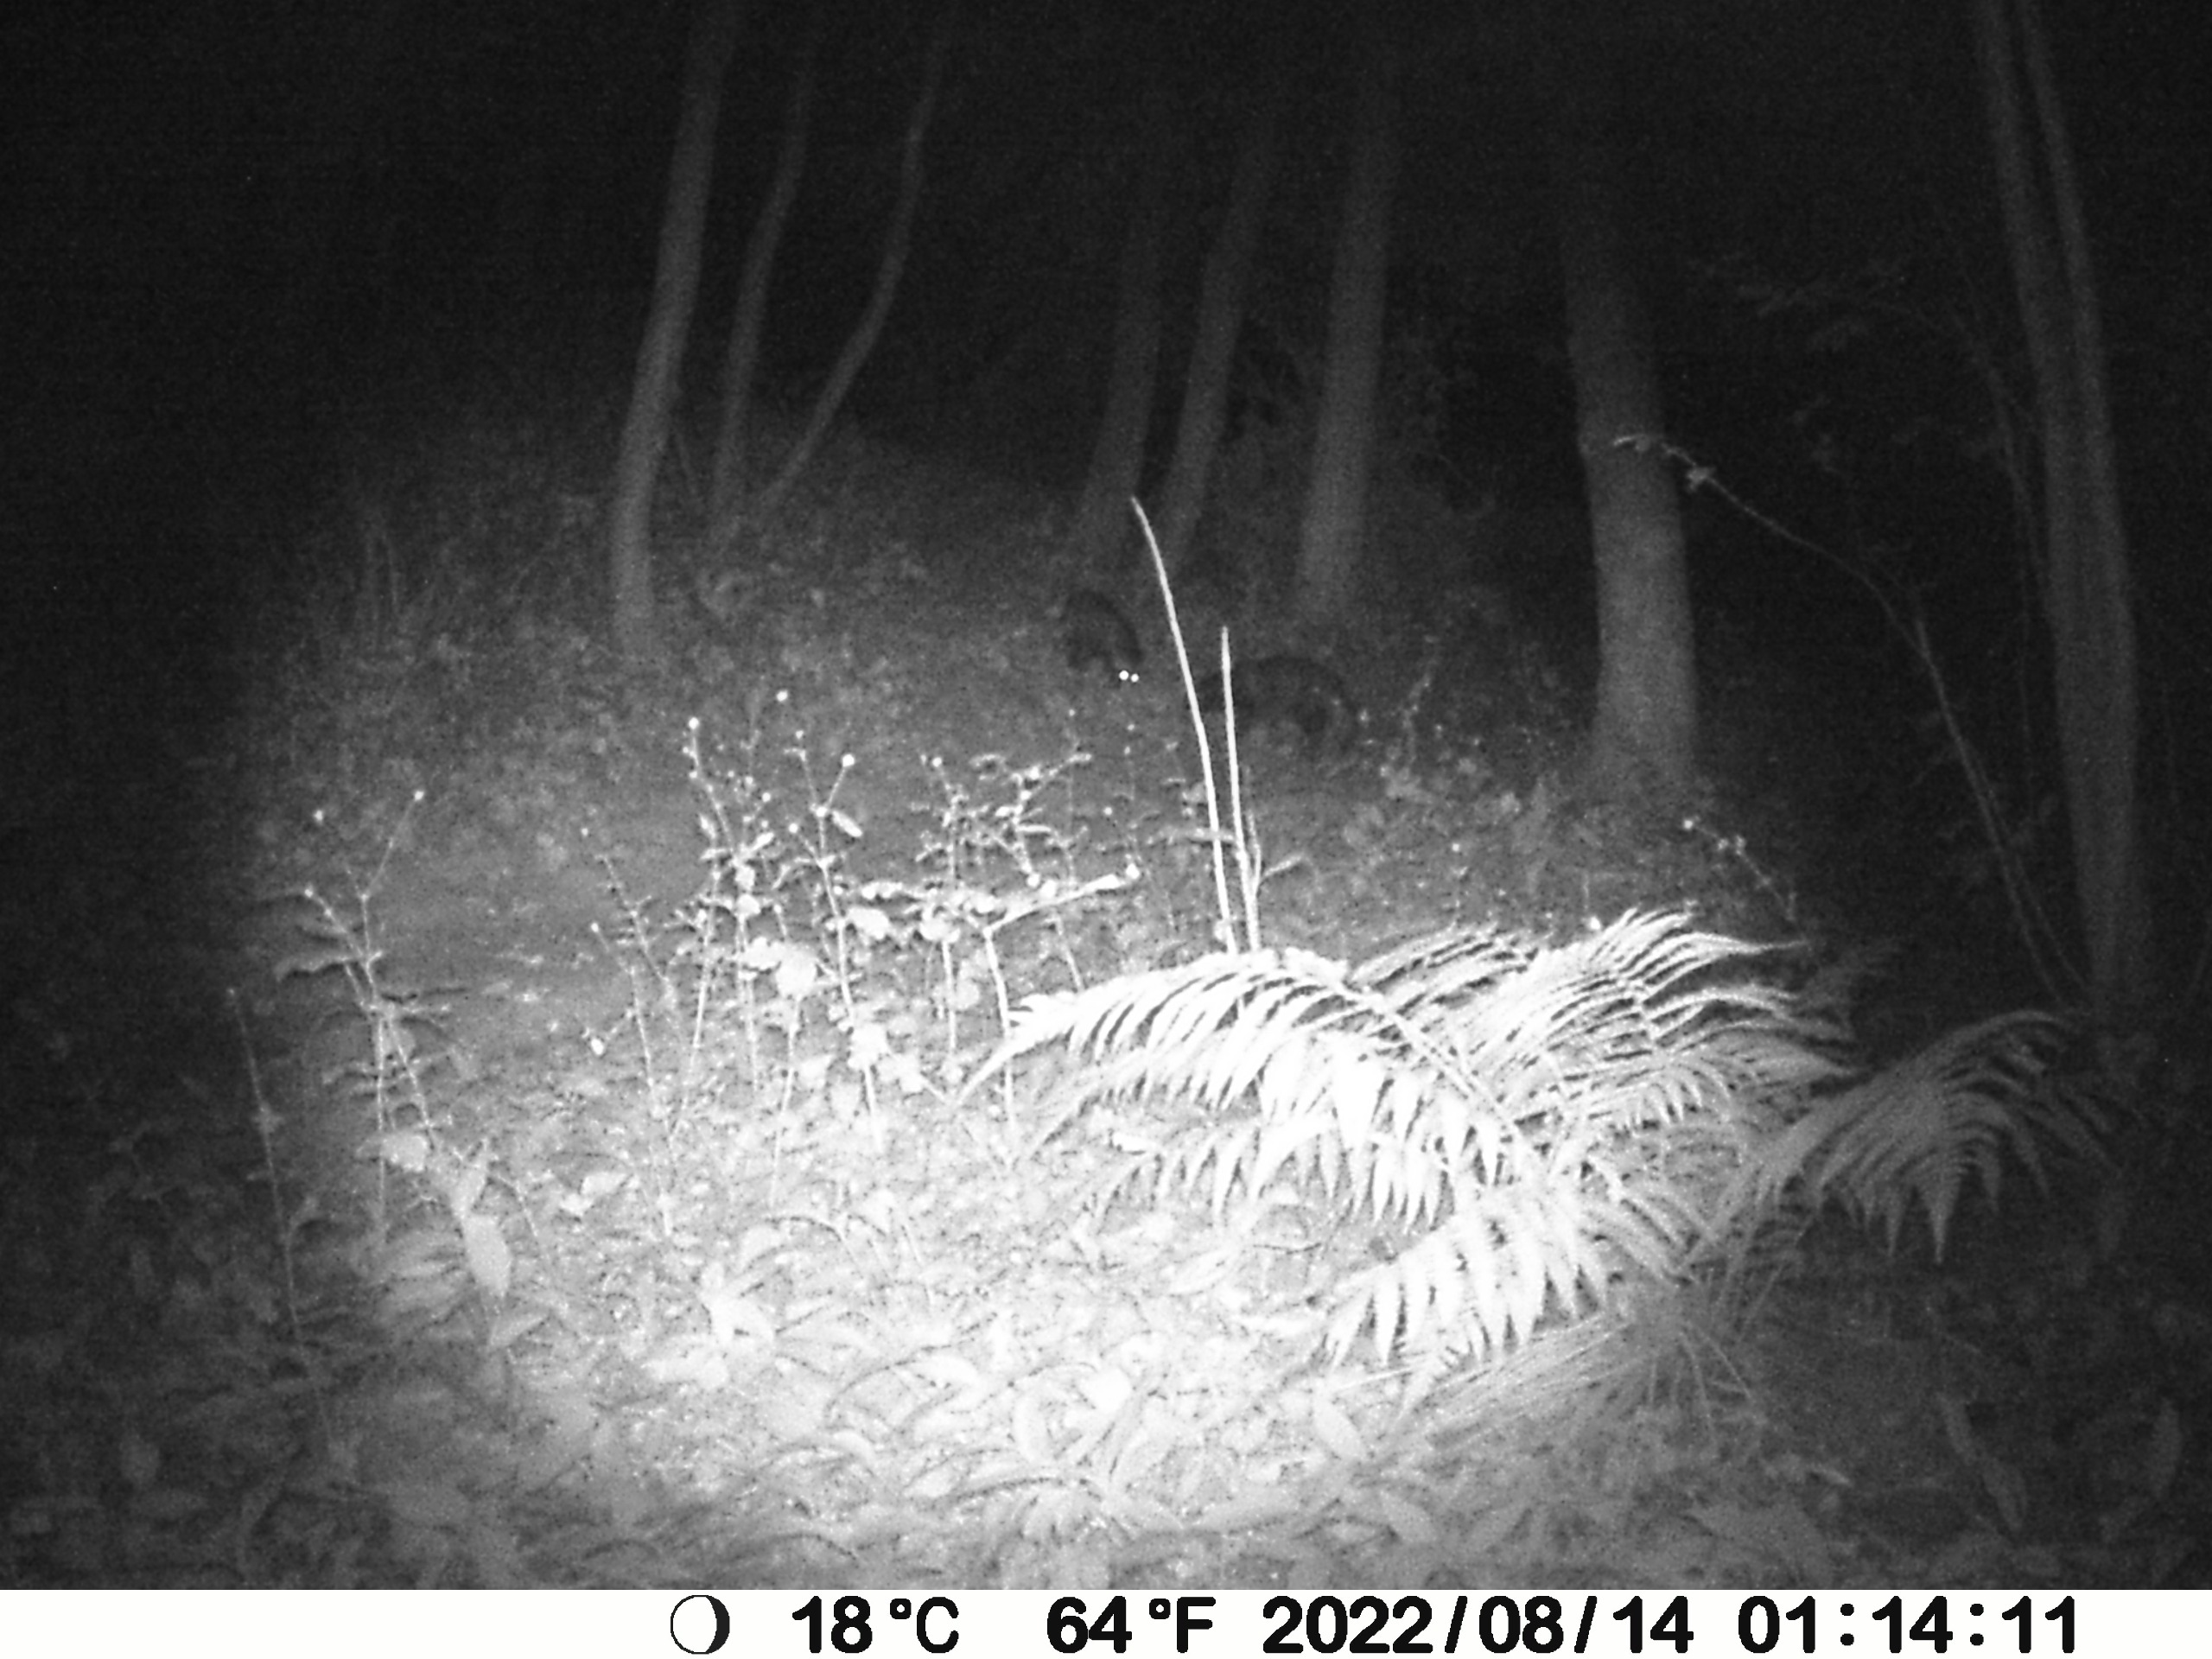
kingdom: Animalia
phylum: Chordata
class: Mammalia
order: Carnivora
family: Canidae
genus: Nyctereutes
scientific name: Nyctereutes procyonoides
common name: Mårhund
